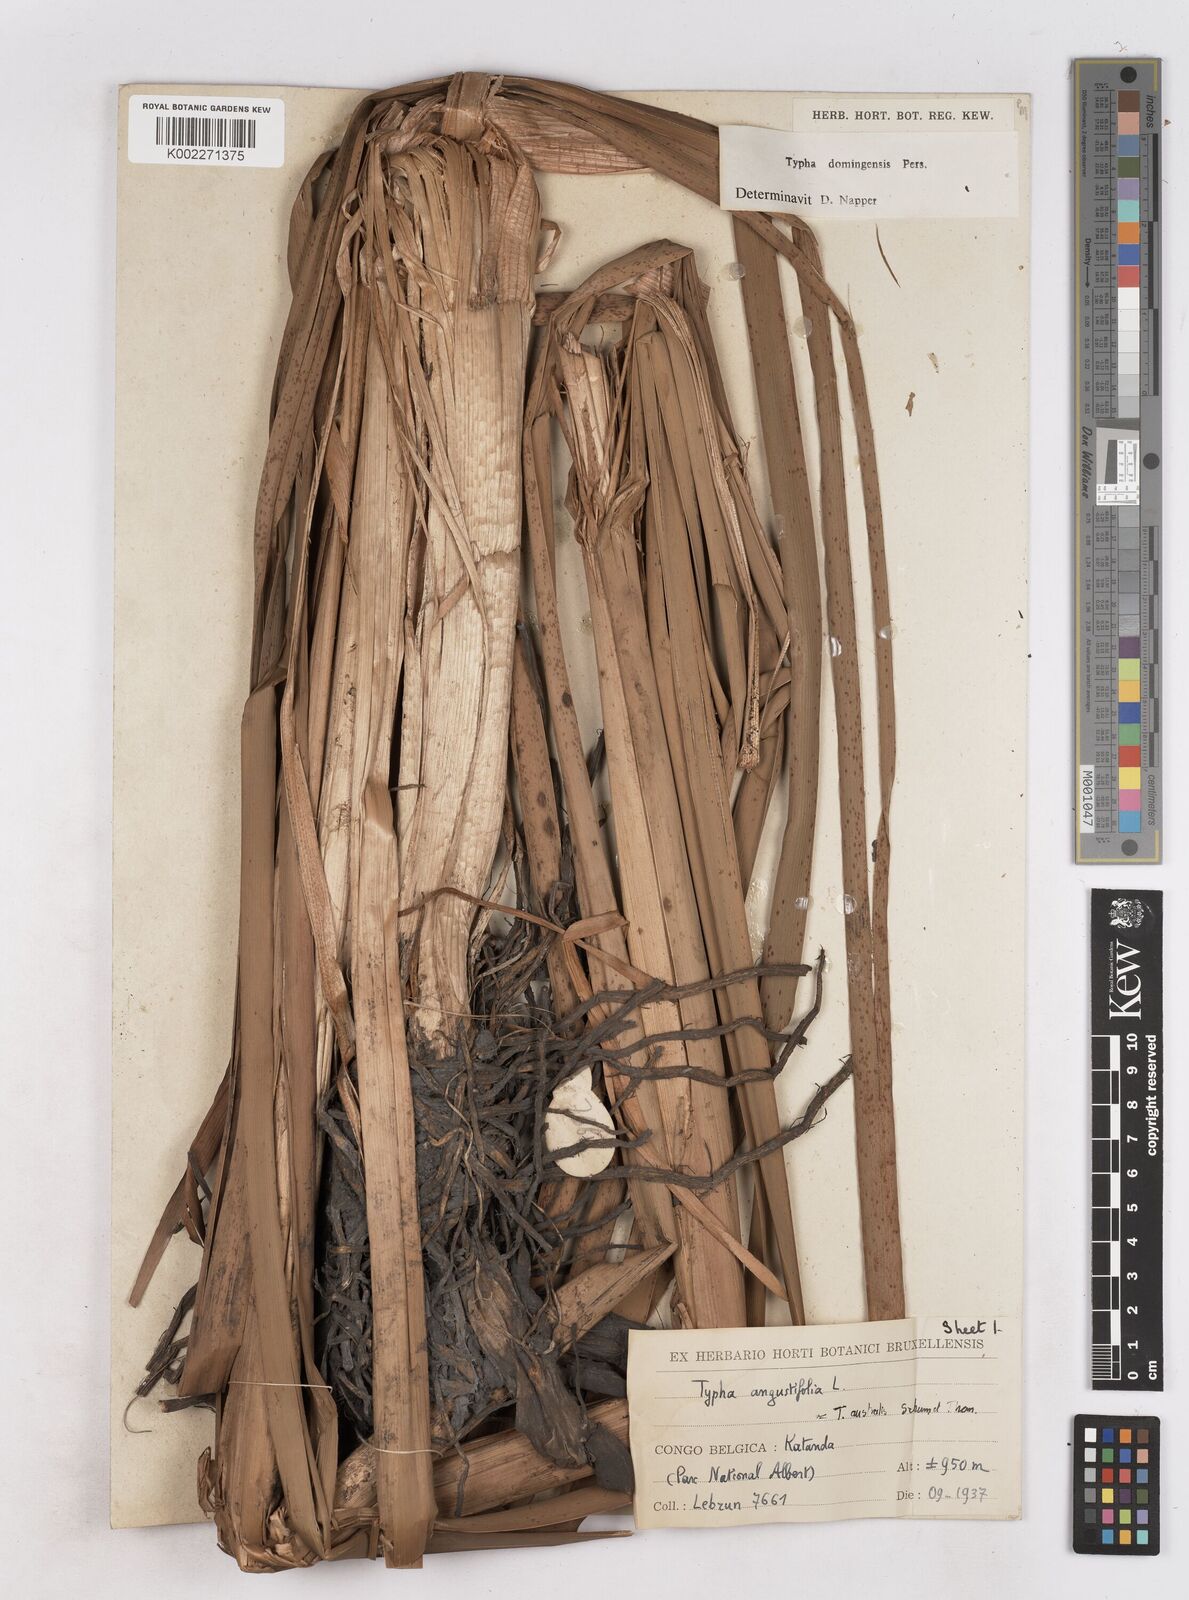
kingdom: Plantae
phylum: Tracheophyta
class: Liliopsida
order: Poales
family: Typhaceae
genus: Typha
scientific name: Typha domingensis
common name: Southern cattail
